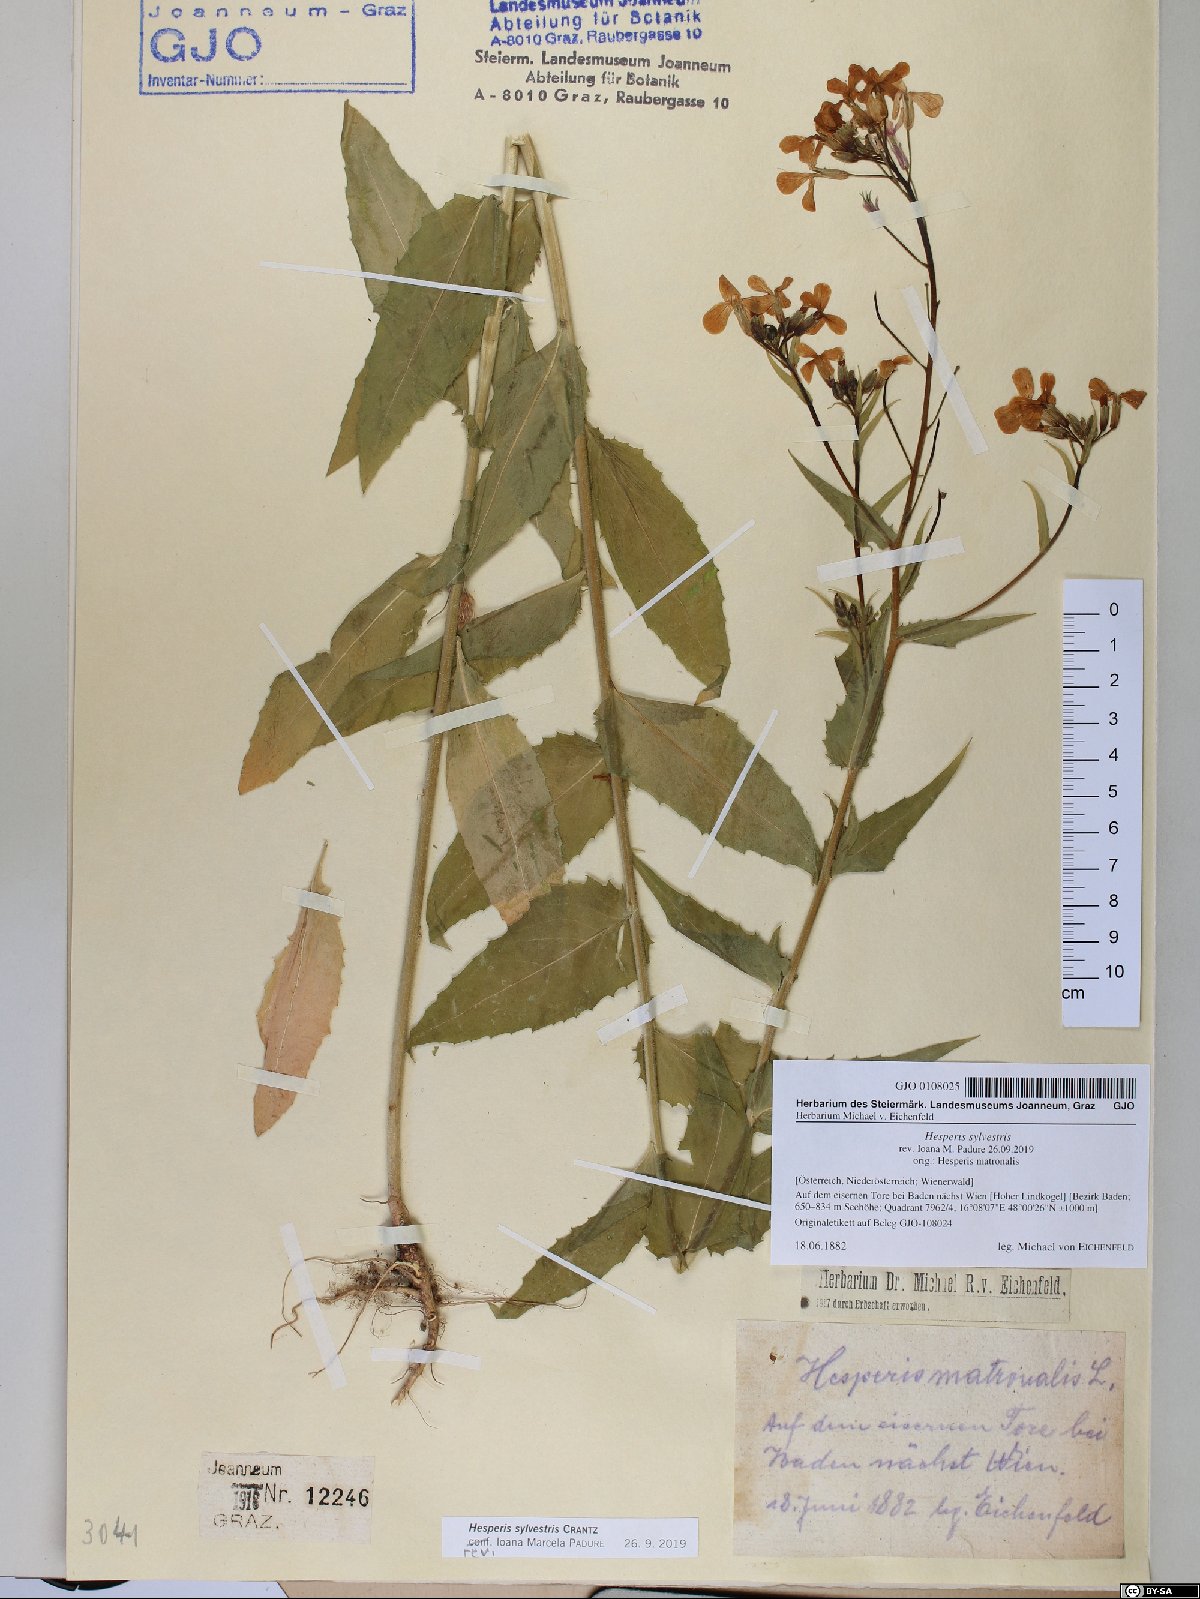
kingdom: Plantae
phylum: Tracheophyta
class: Magnoliopsida
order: Brassicales
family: Brassicaceae
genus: Hesperis
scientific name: Hesperis sylvestris
